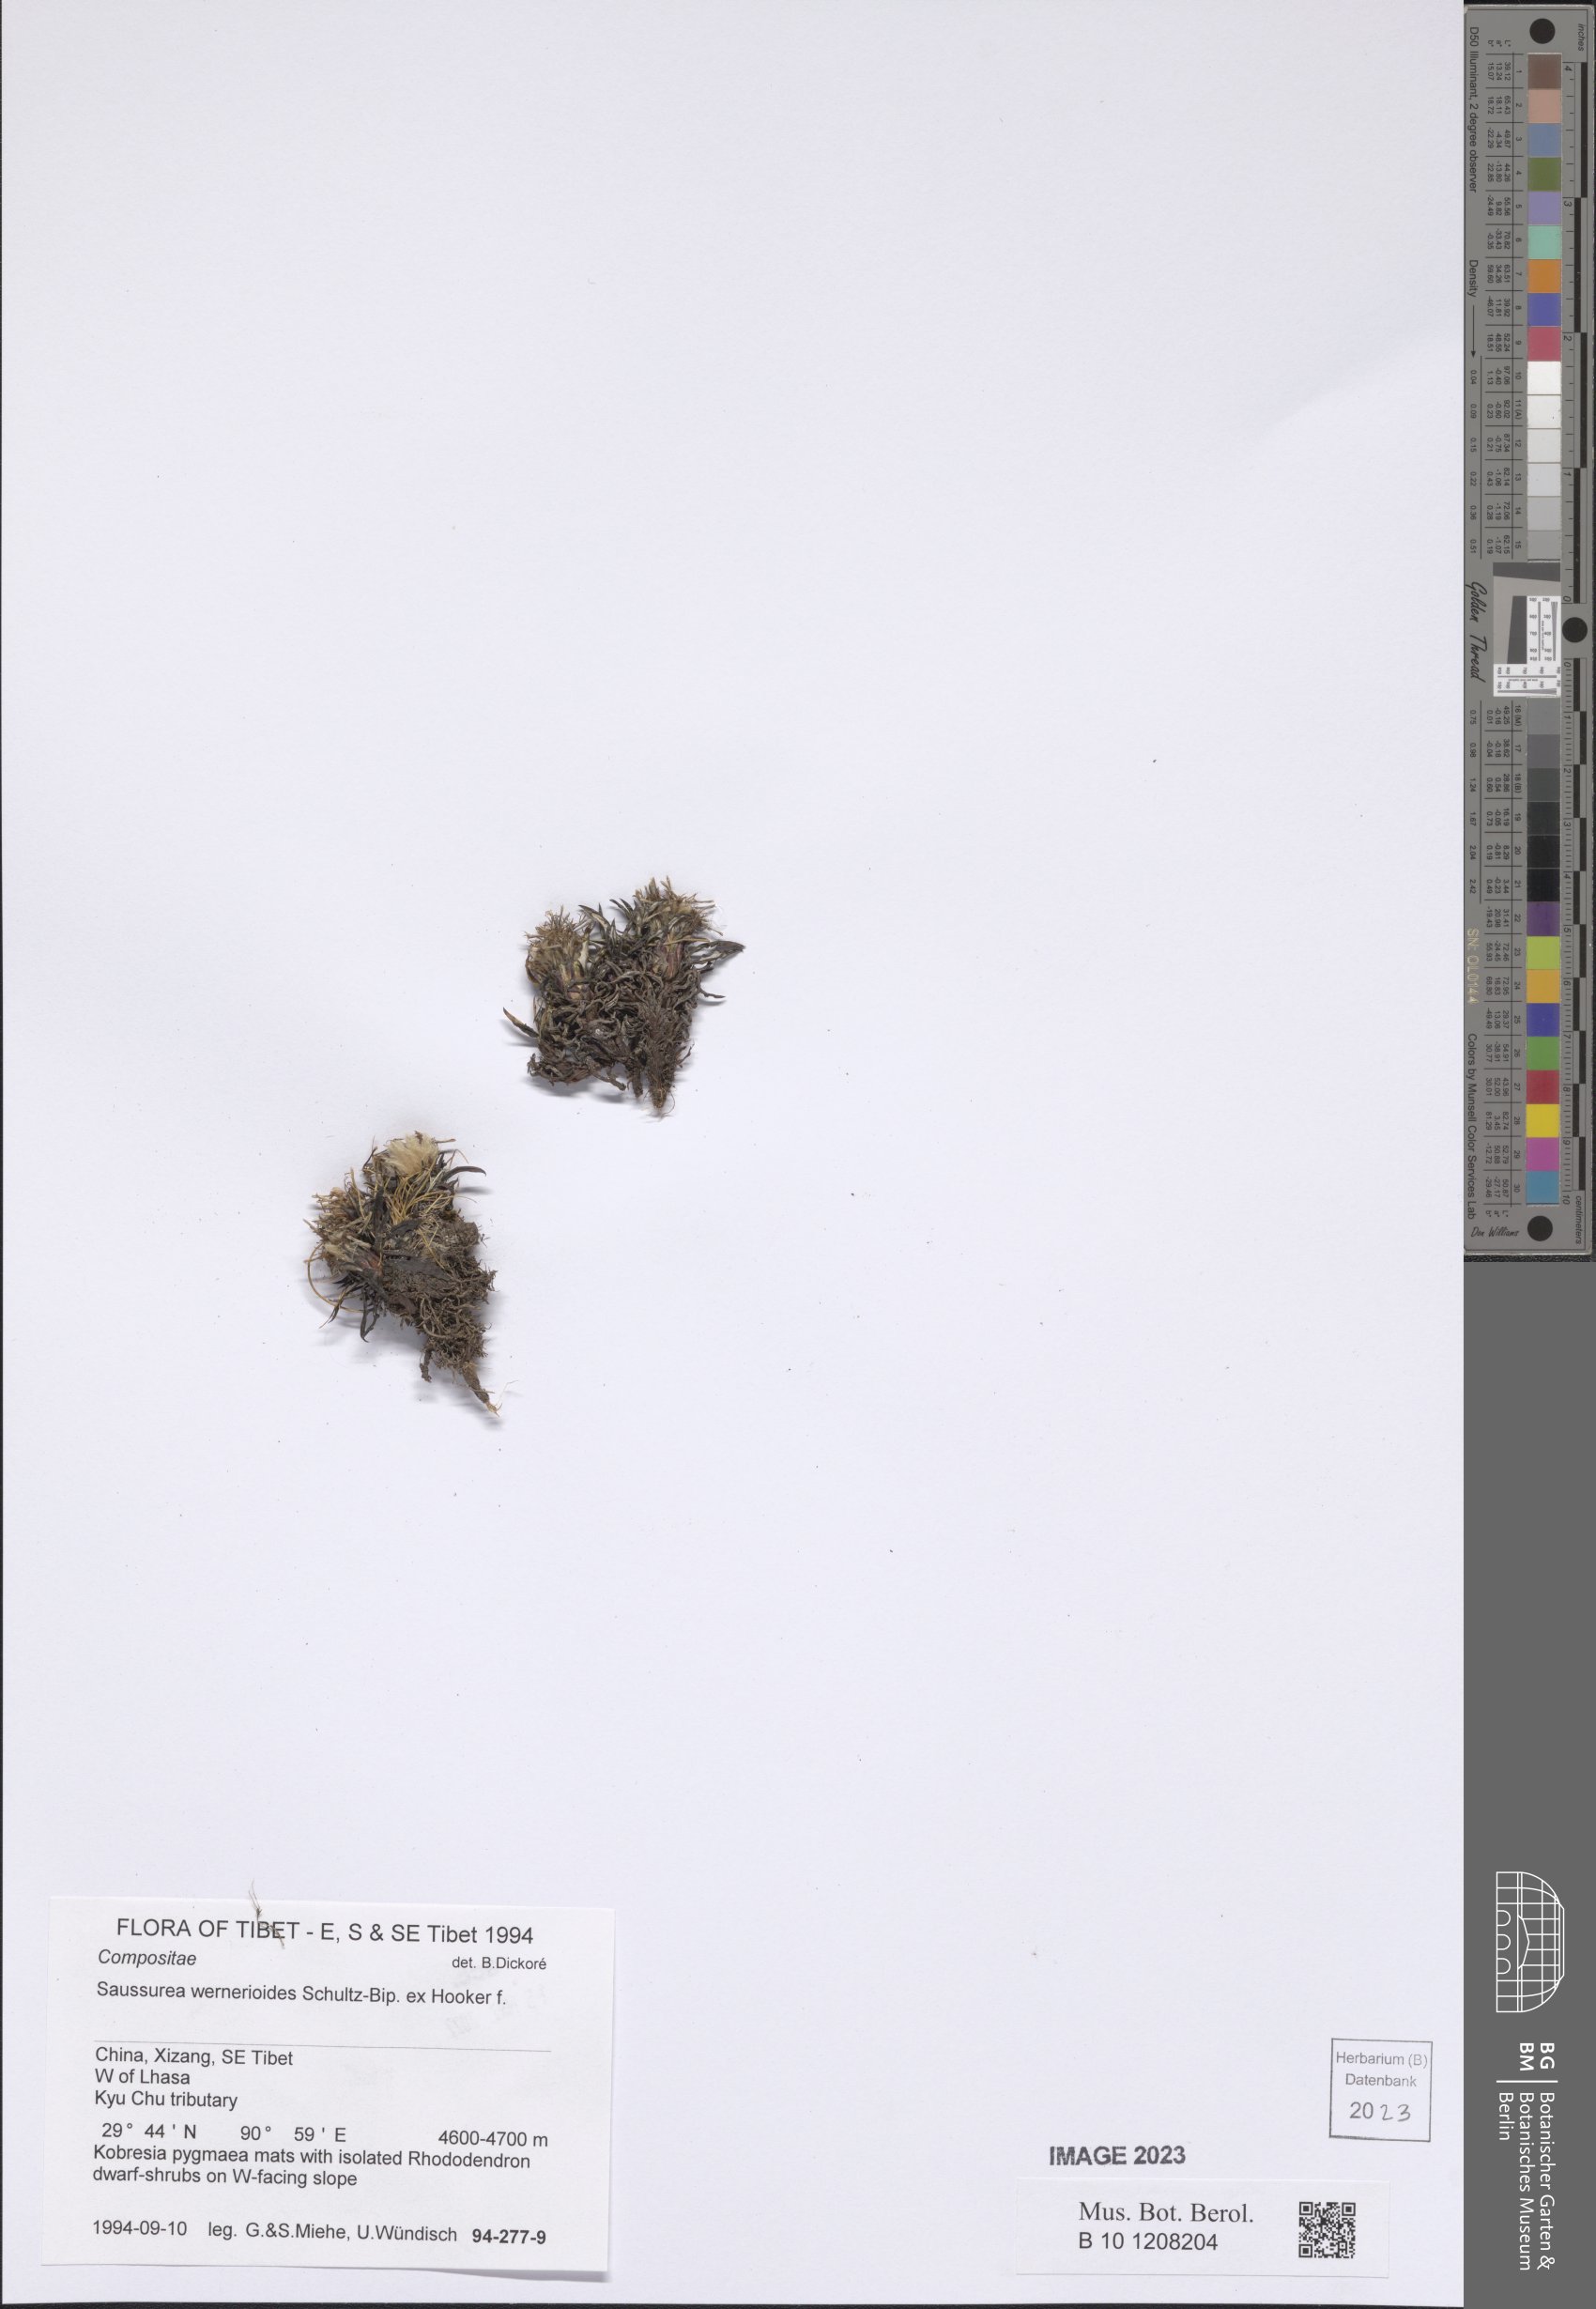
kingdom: Plantae
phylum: Tracheophyta
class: Magnoliopsida
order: Asterales
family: Asteraceae
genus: Saussurea
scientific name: Saussurea wernerioides
